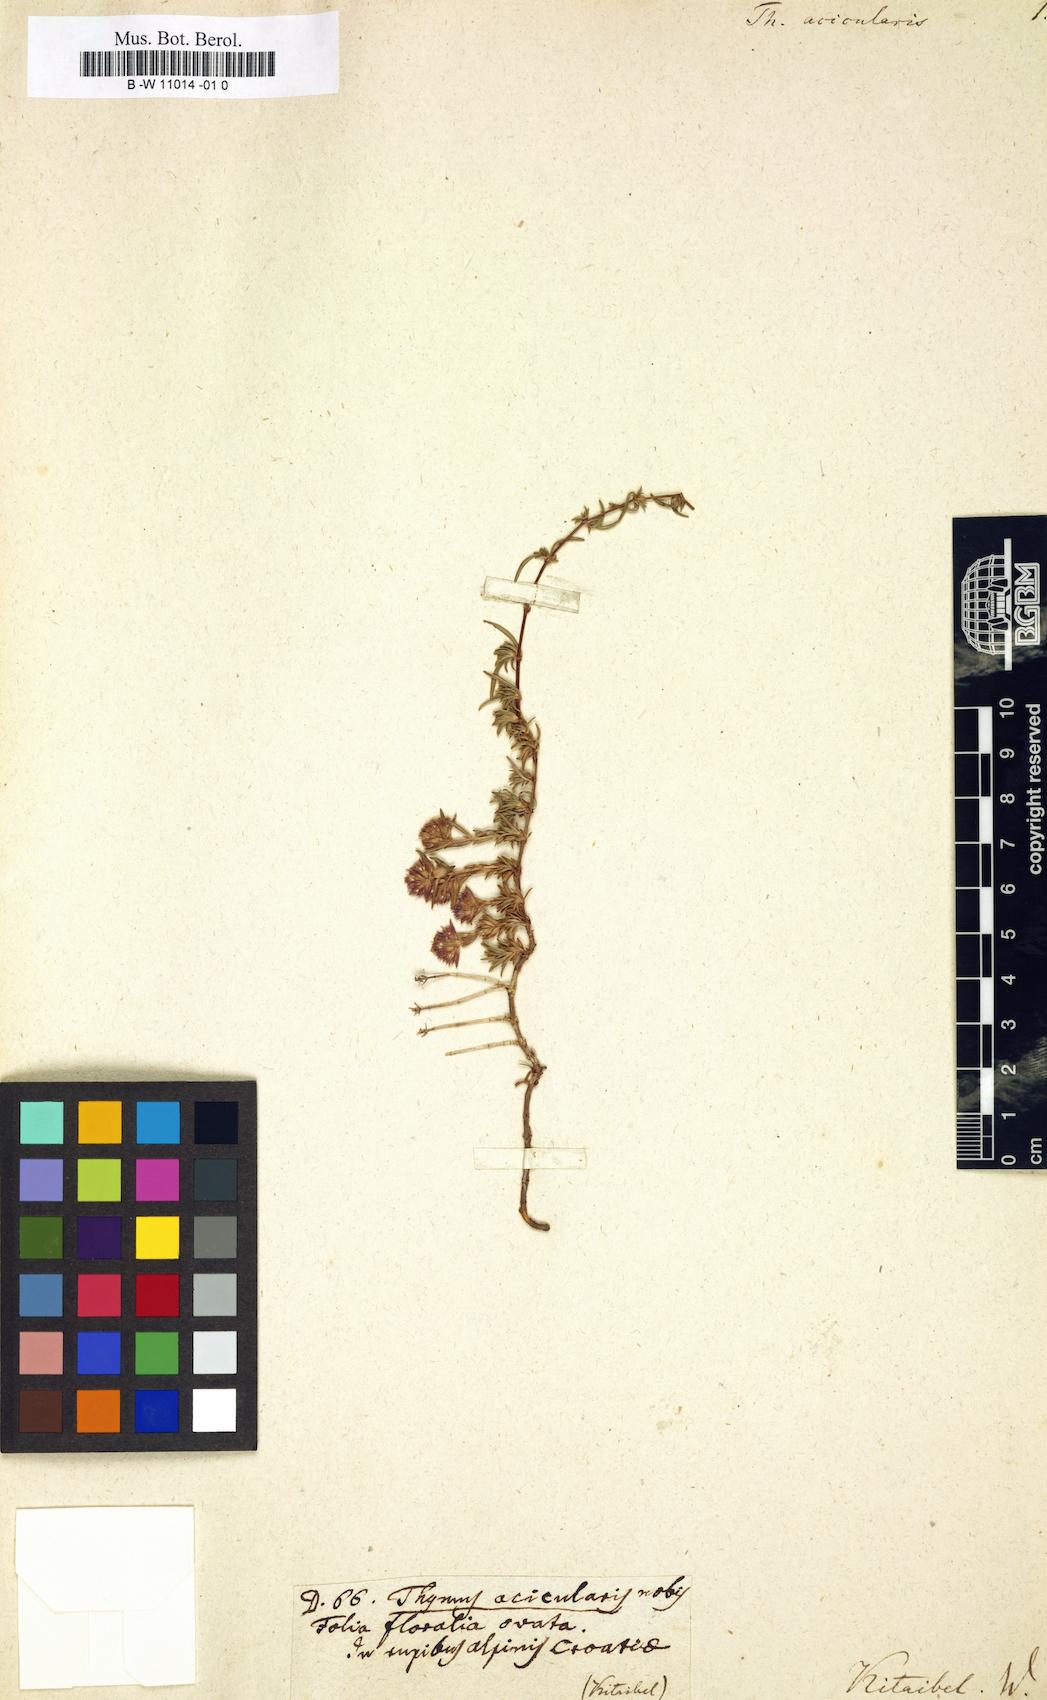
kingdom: Plantae
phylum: Tracheophyta
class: Magnoliopsida
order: Lamiales
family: Lamiaceae
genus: Thymus
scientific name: Thymus
